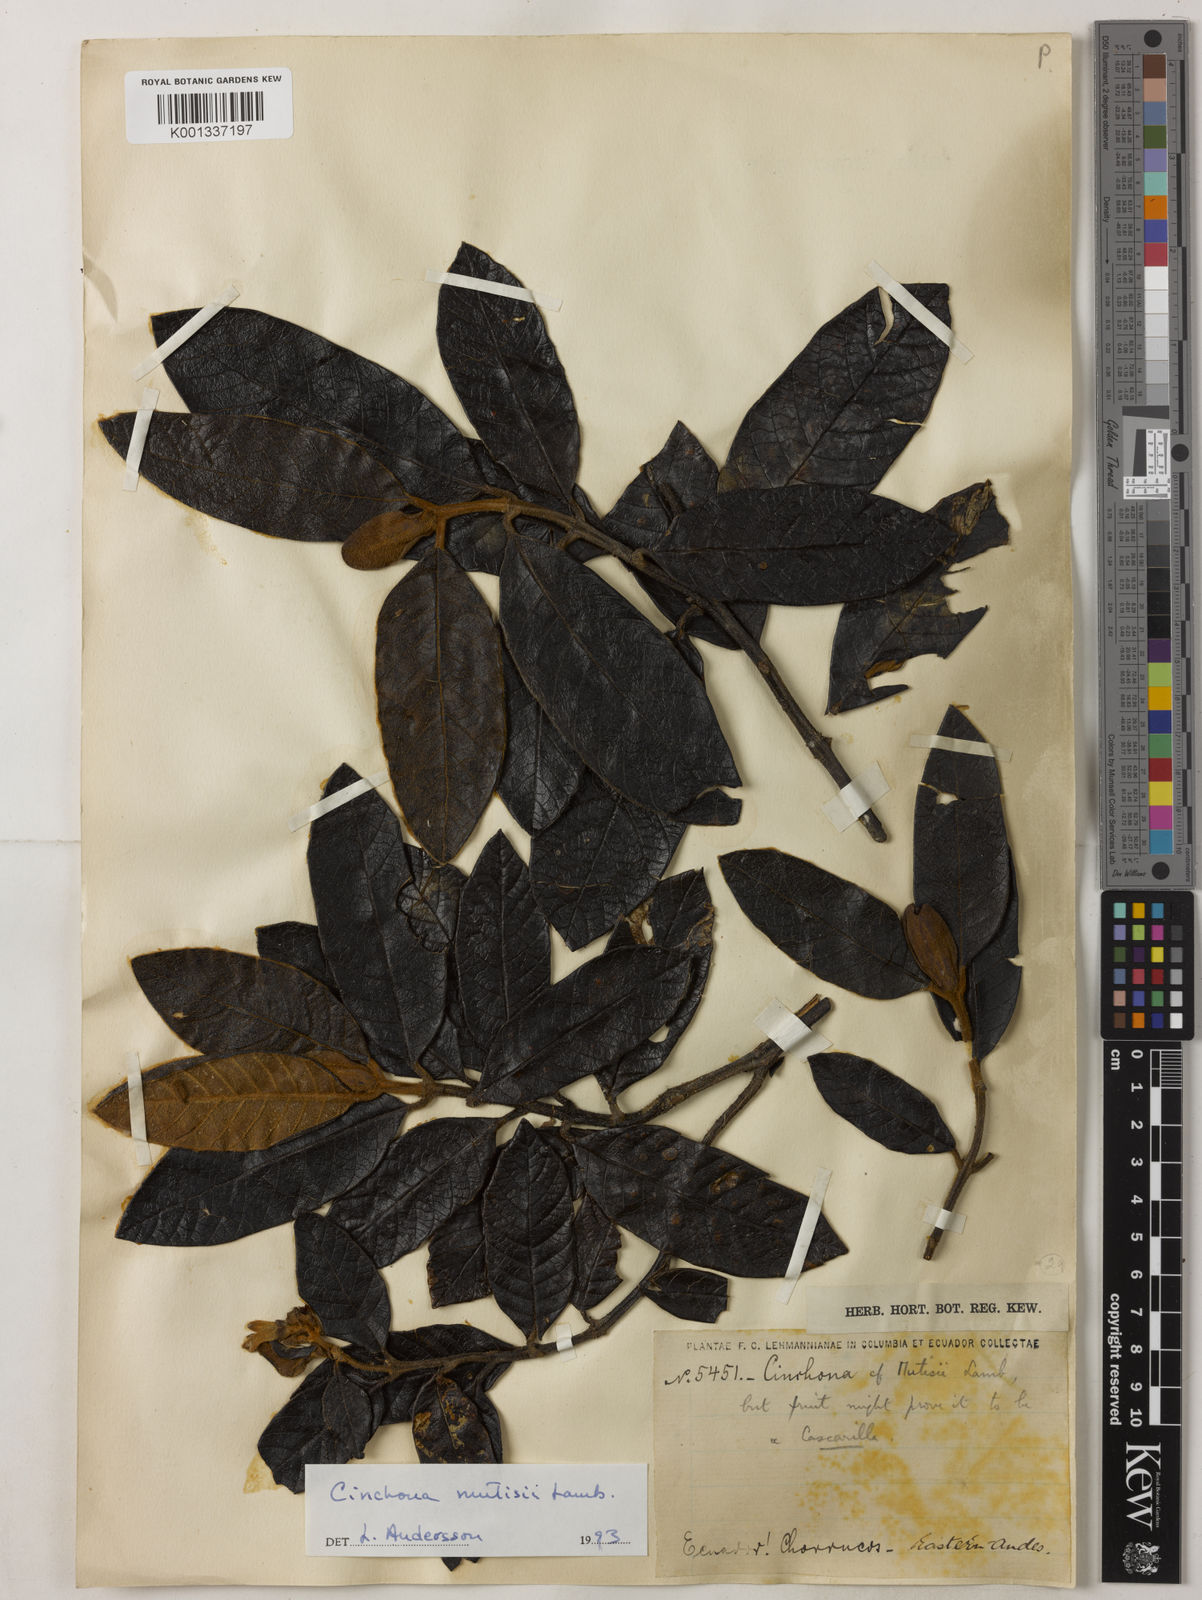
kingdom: Plantae
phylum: Tracheophyta
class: Magnoliopsida
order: Gentianales
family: Rubiaceae
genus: Cinchona
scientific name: Cinchona mutisii
